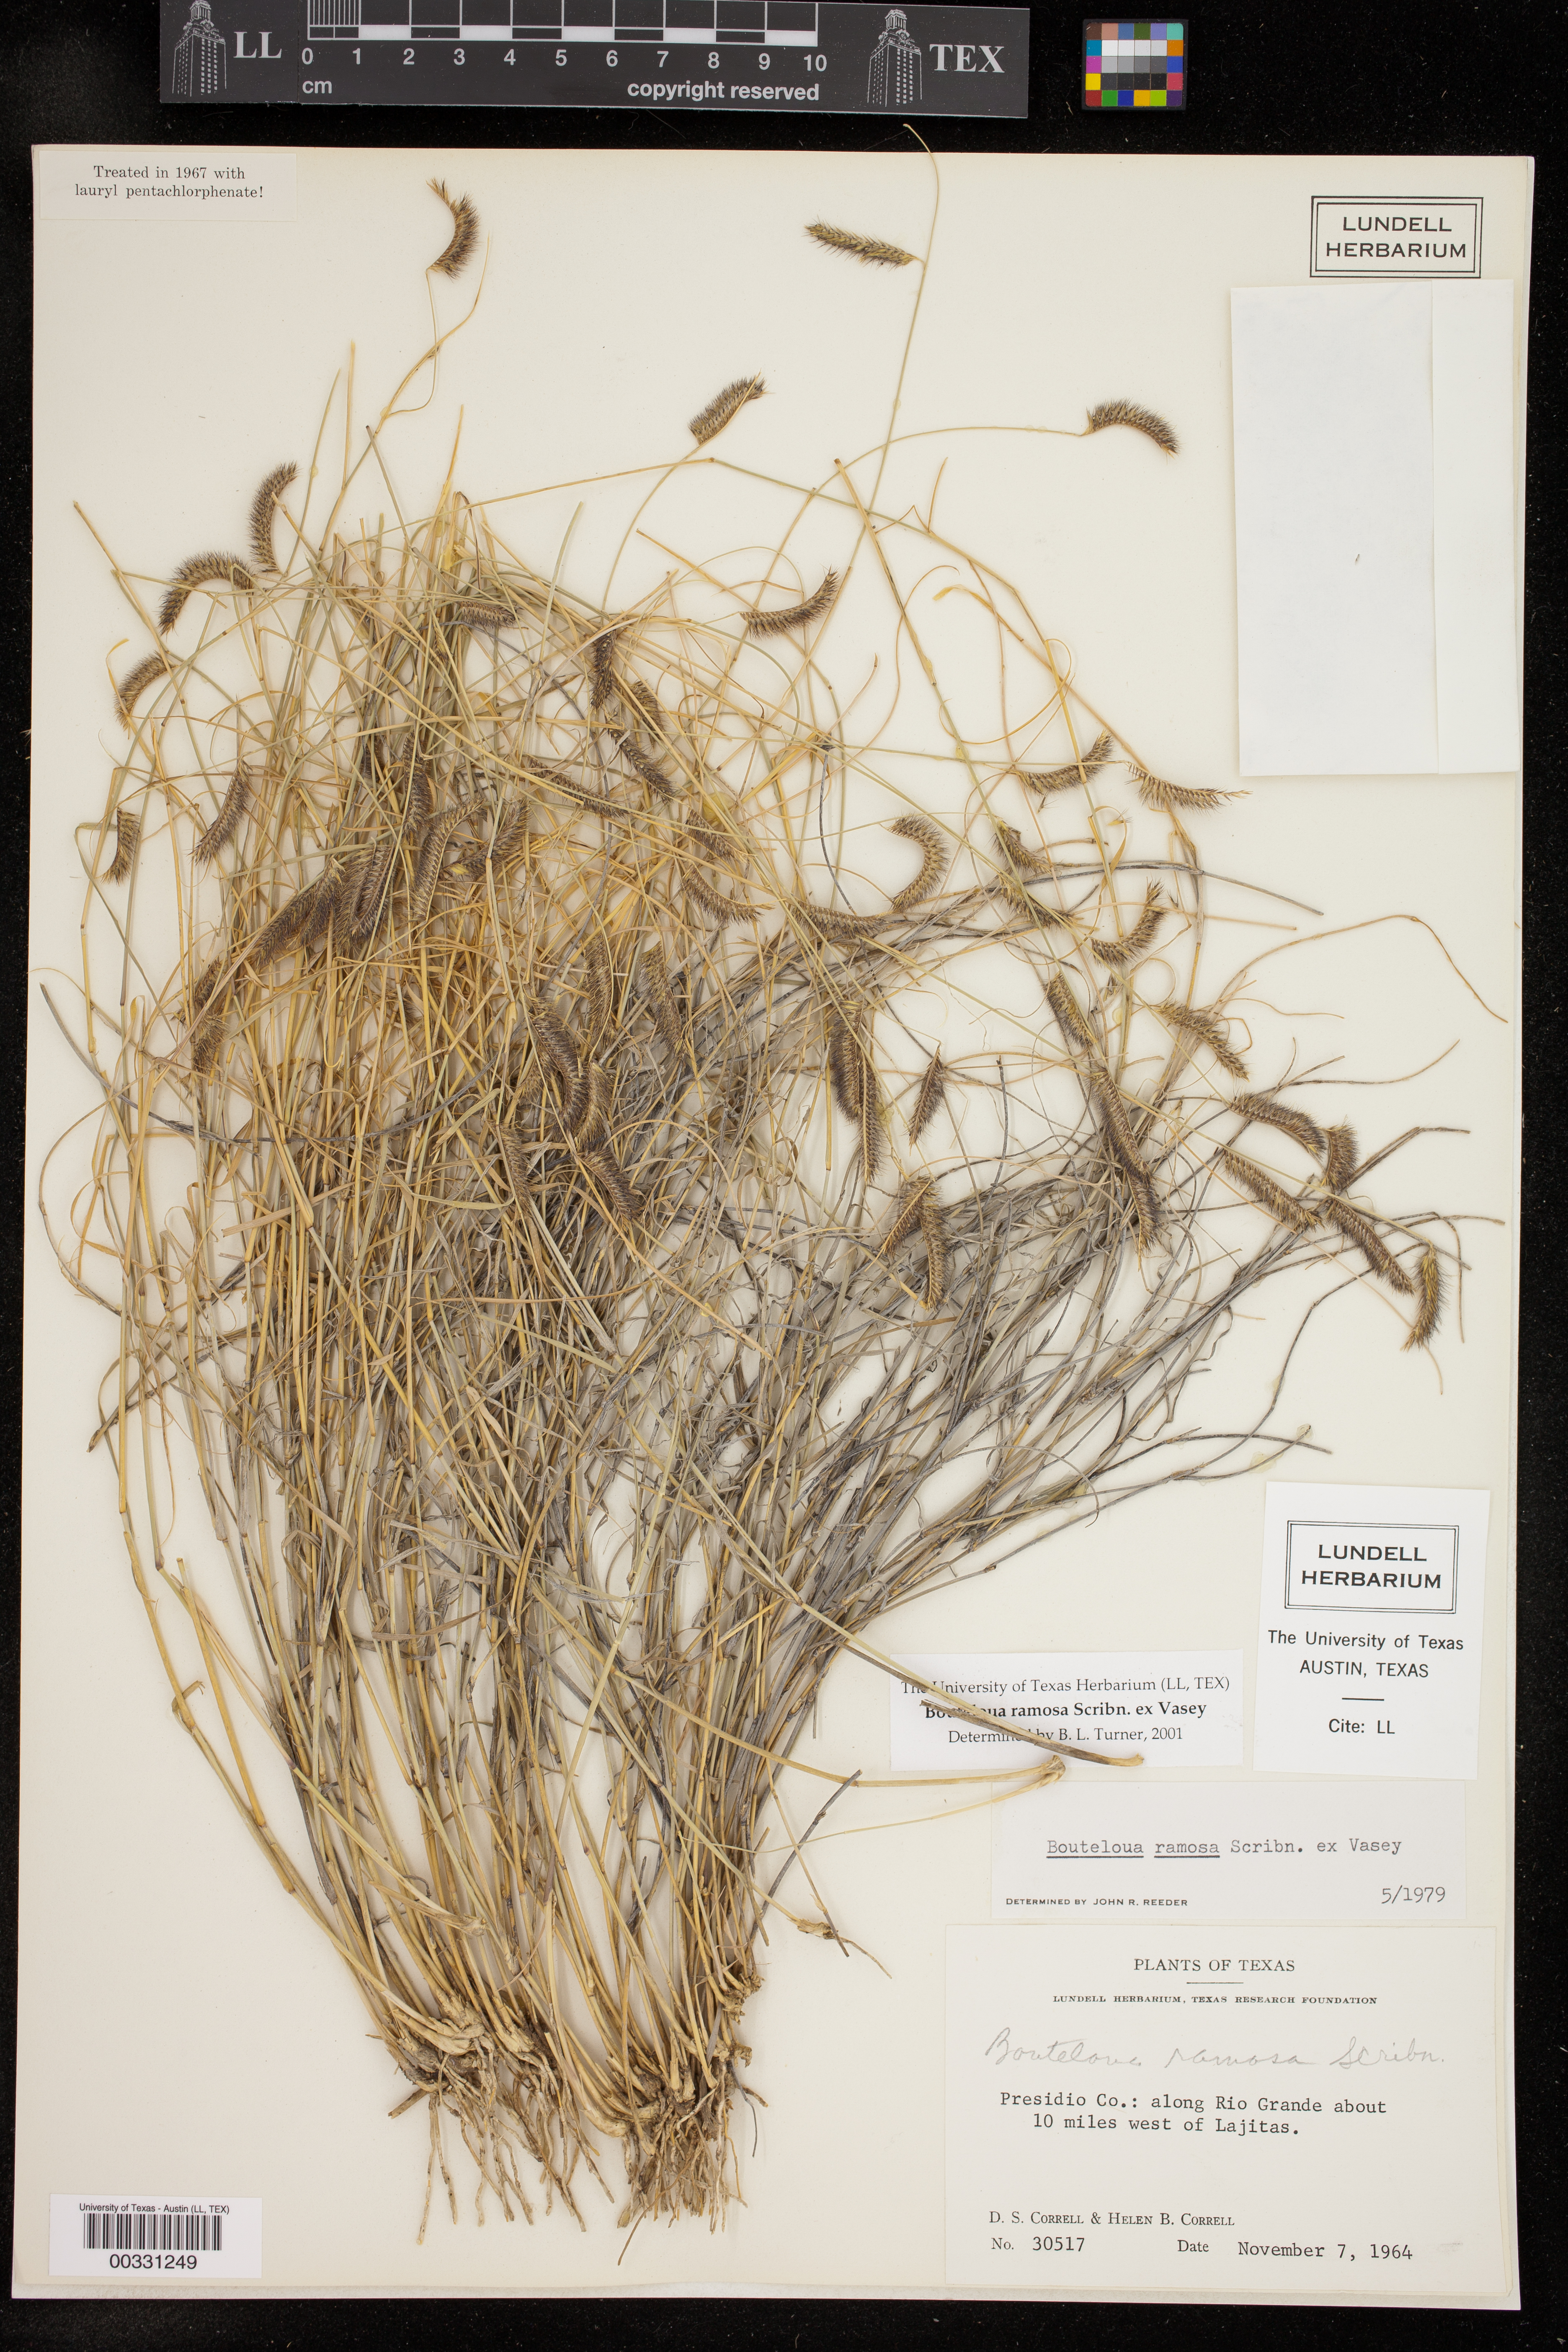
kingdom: Plantae
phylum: Tracheophyta
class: Liliopsida
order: Poales
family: Poaceae
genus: Bouteloua
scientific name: Bouteloua ramosa
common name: Chino grama
